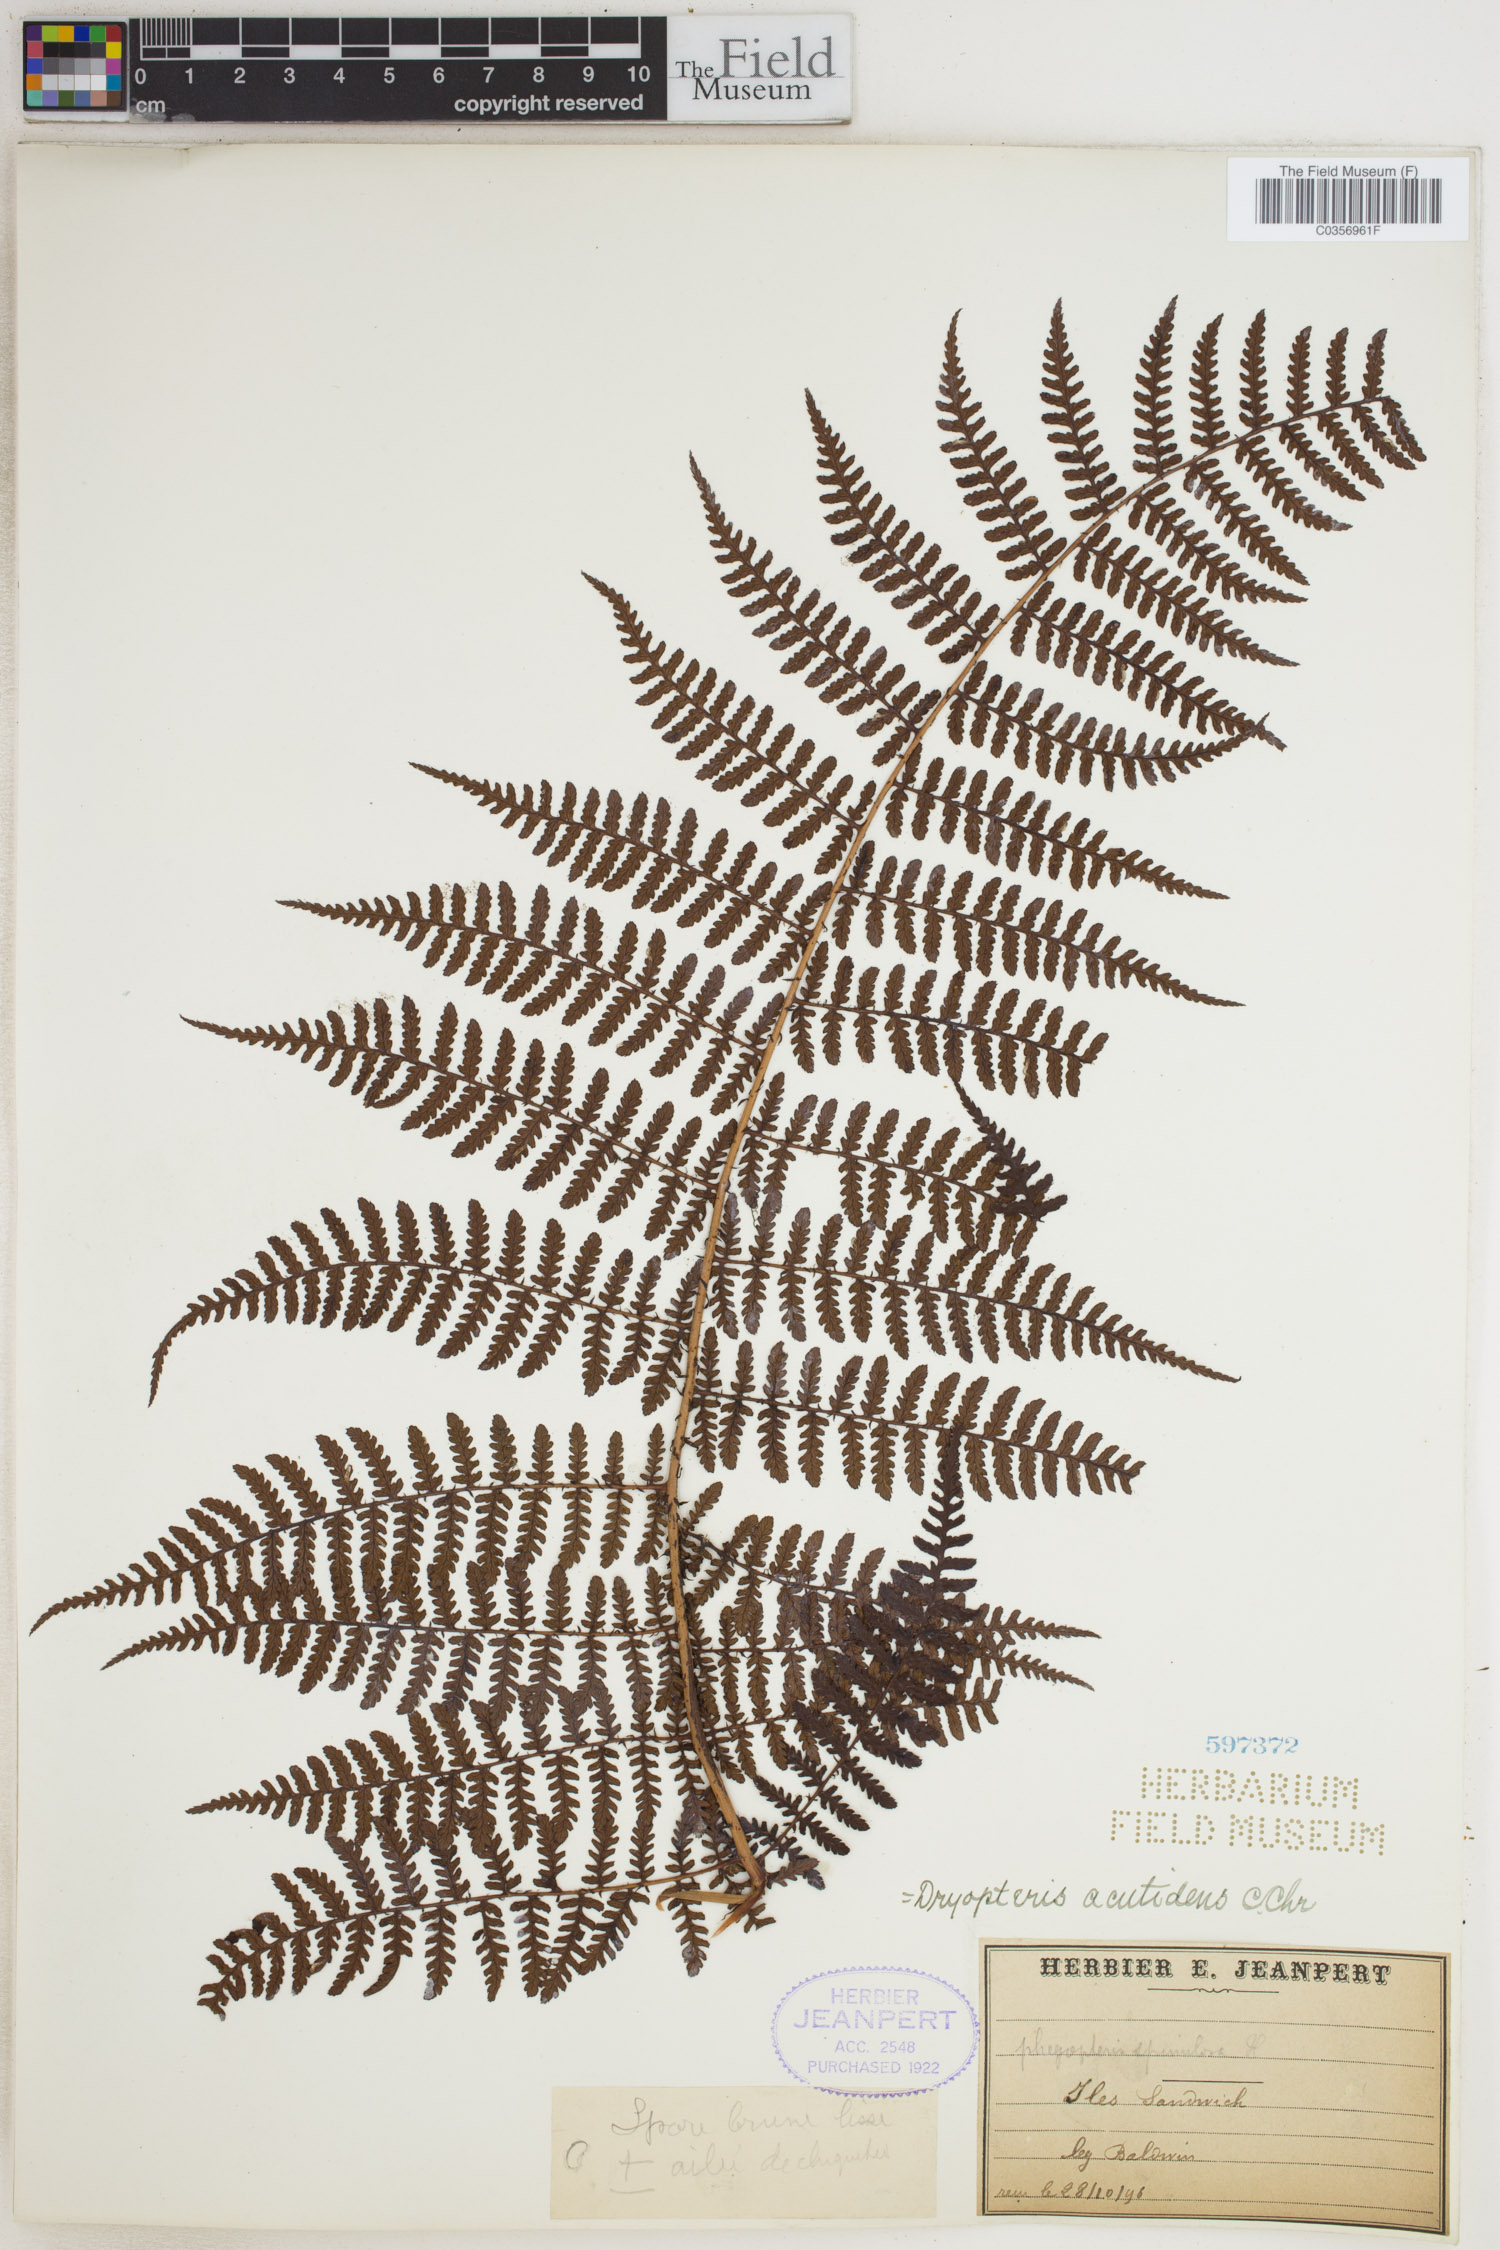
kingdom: Plantae
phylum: Tracheophyta
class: Polypodiopsida
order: Polypodiales
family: Dryopteridaceae
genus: Dryopteris
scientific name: Dryopteris unidentata
